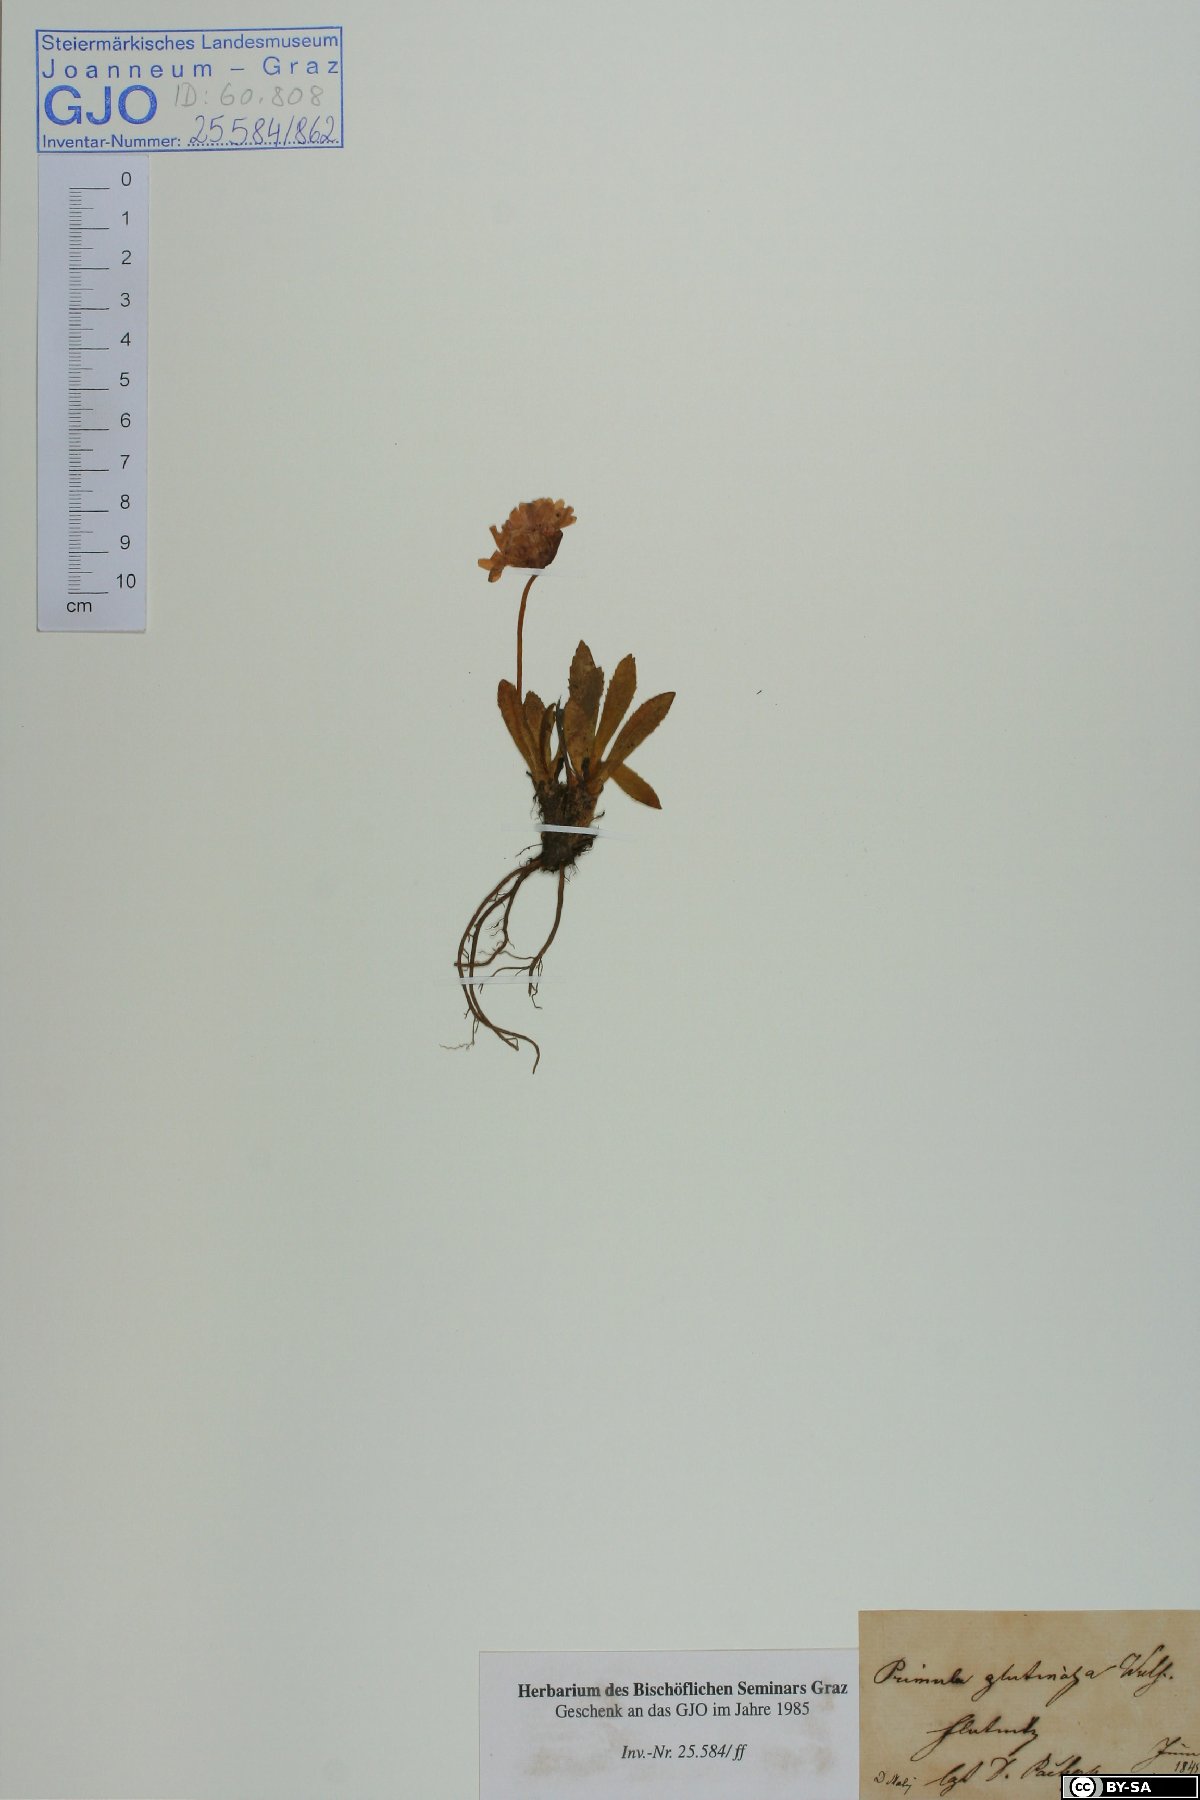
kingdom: Plantae
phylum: Tracheophyta
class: Magnoliopsida
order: Ericales
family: Primulaceae
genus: Primula
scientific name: Primula glutinosa
